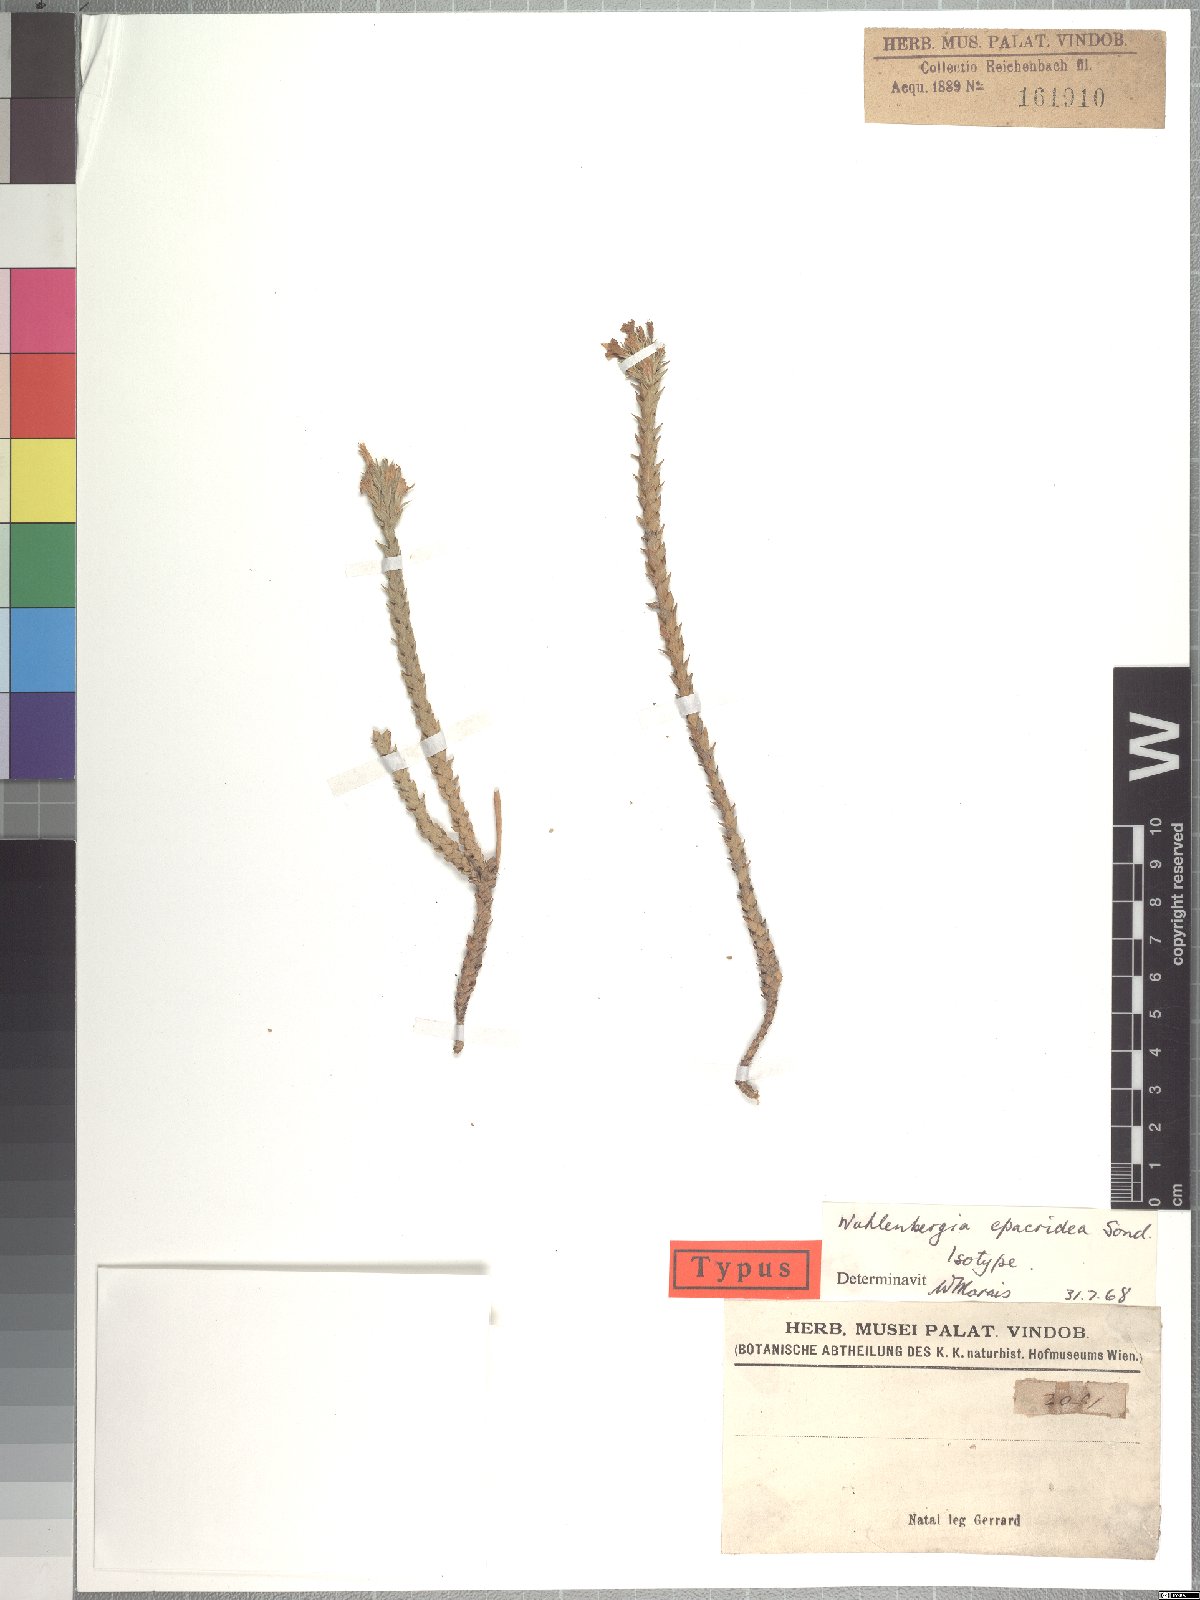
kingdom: Plantae
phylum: Tracheophyta
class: Magnoliopsida
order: Asterales
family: Campanulaceae
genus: Wahlenbergia
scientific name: Wahlenbergia epacridea
